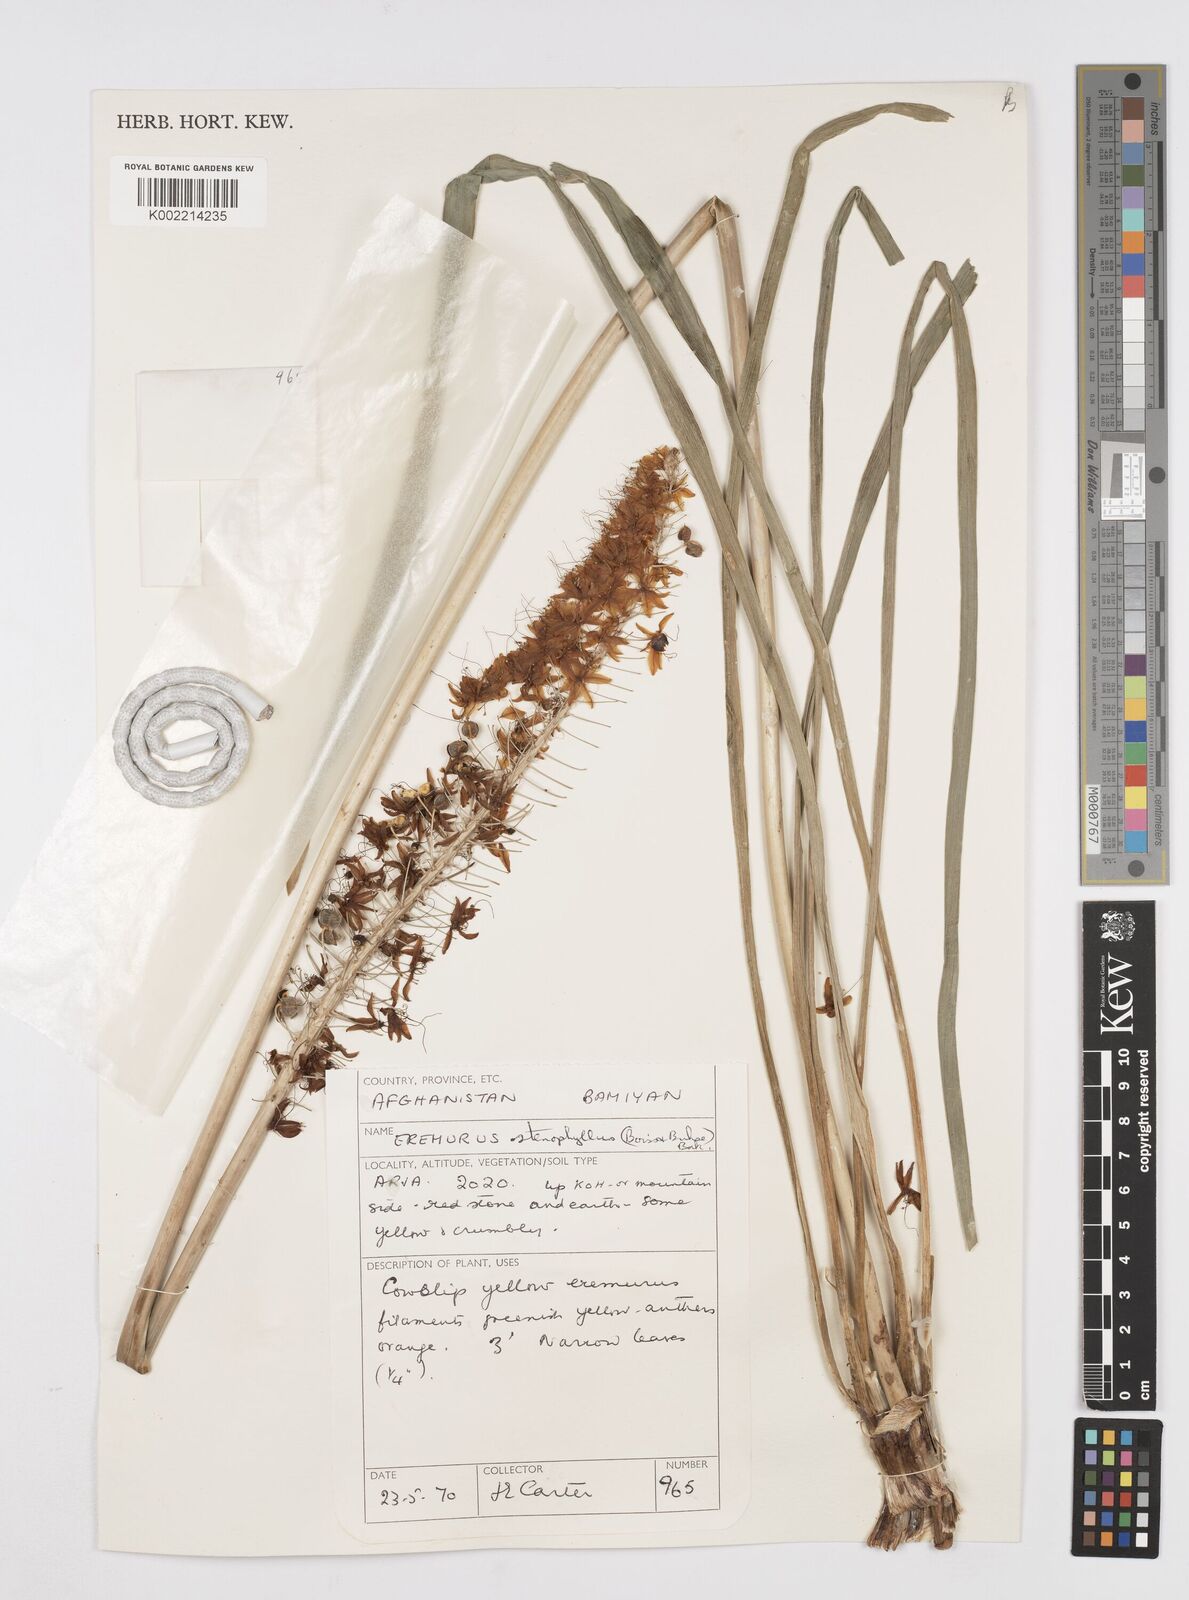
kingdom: Plantae
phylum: Tracheophyta
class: Liliopsida
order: Asparagales
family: Asphodelaceae
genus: Eremurus
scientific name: Eremurus stenophyllus
